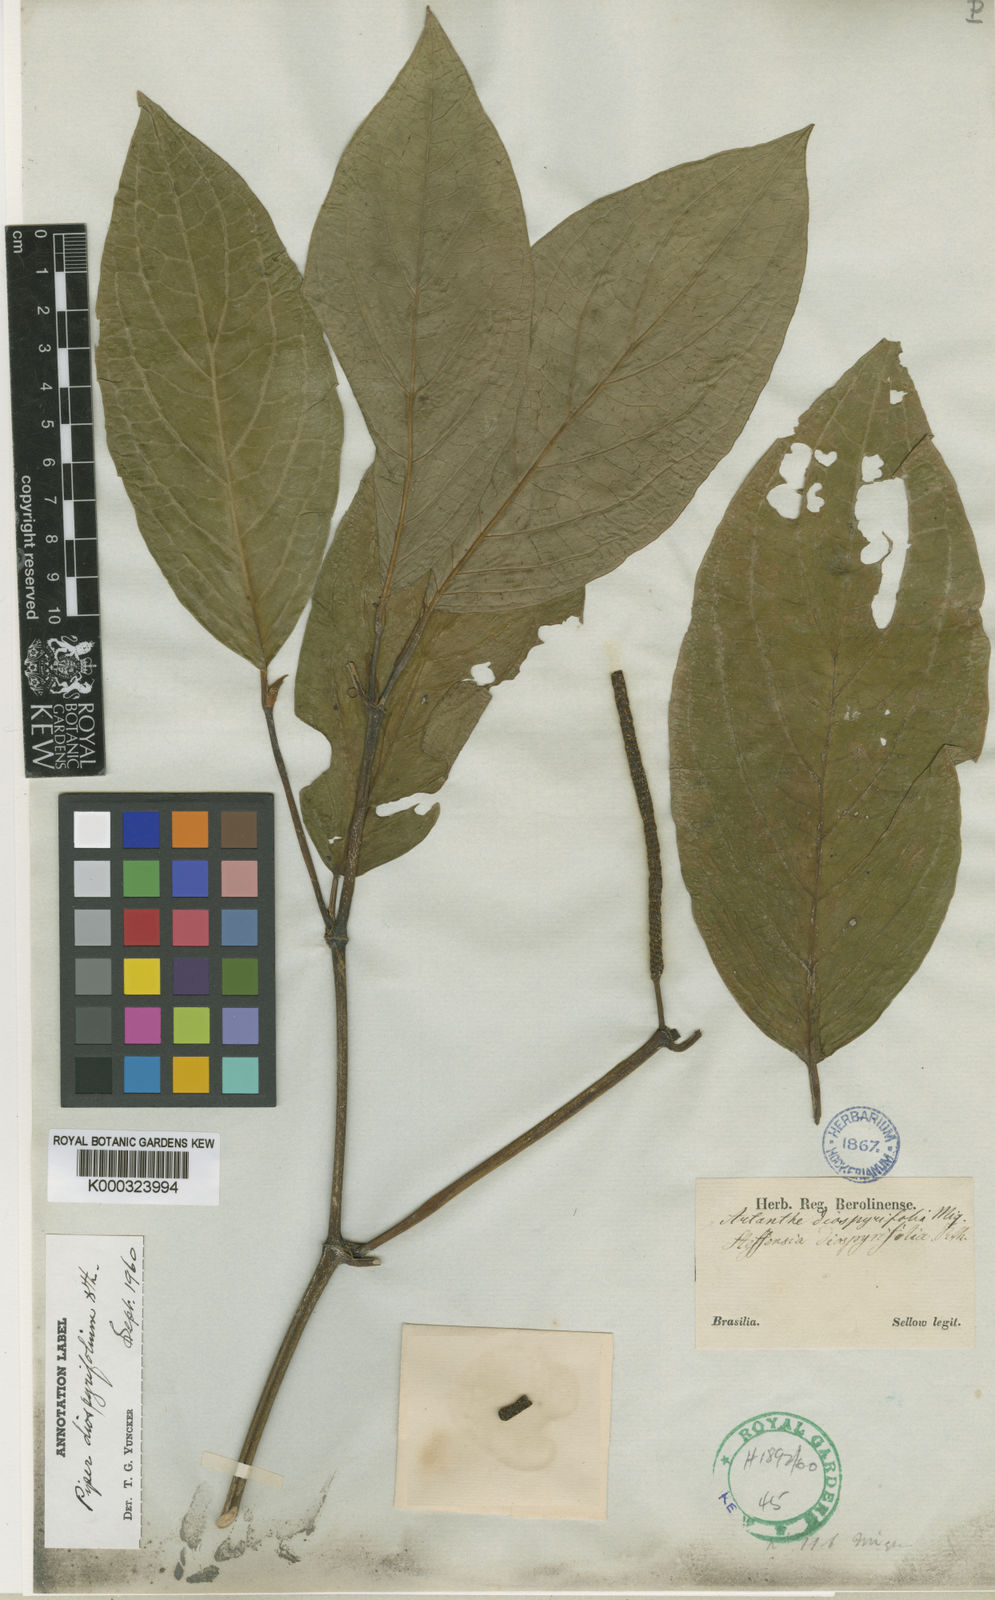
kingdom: Plantae
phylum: Tracheophyta
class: Magnoliopsida
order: Piperales
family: Piperaceae
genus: Piper
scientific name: Piper
